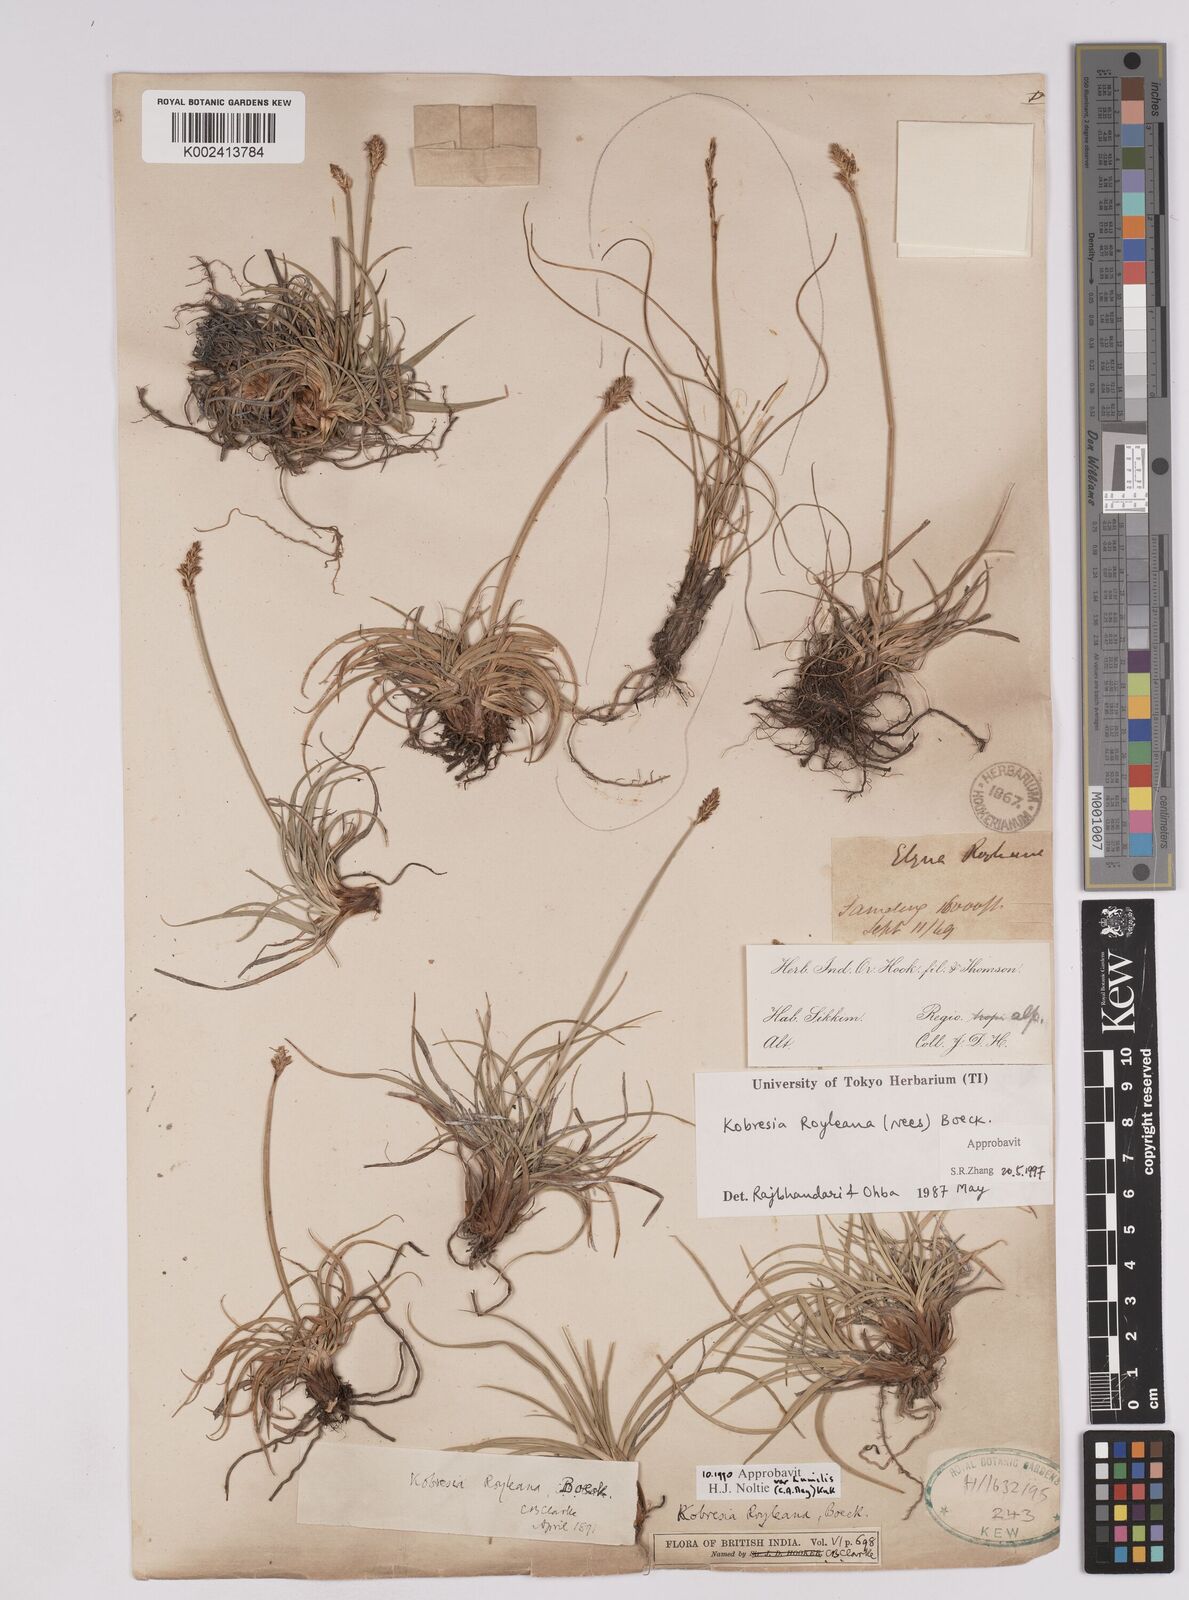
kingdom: Plantae
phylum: Tracheophyta
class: Liliopsida
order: Poales
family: Cyperaceae
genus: Carex
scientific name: Carex kokanica
